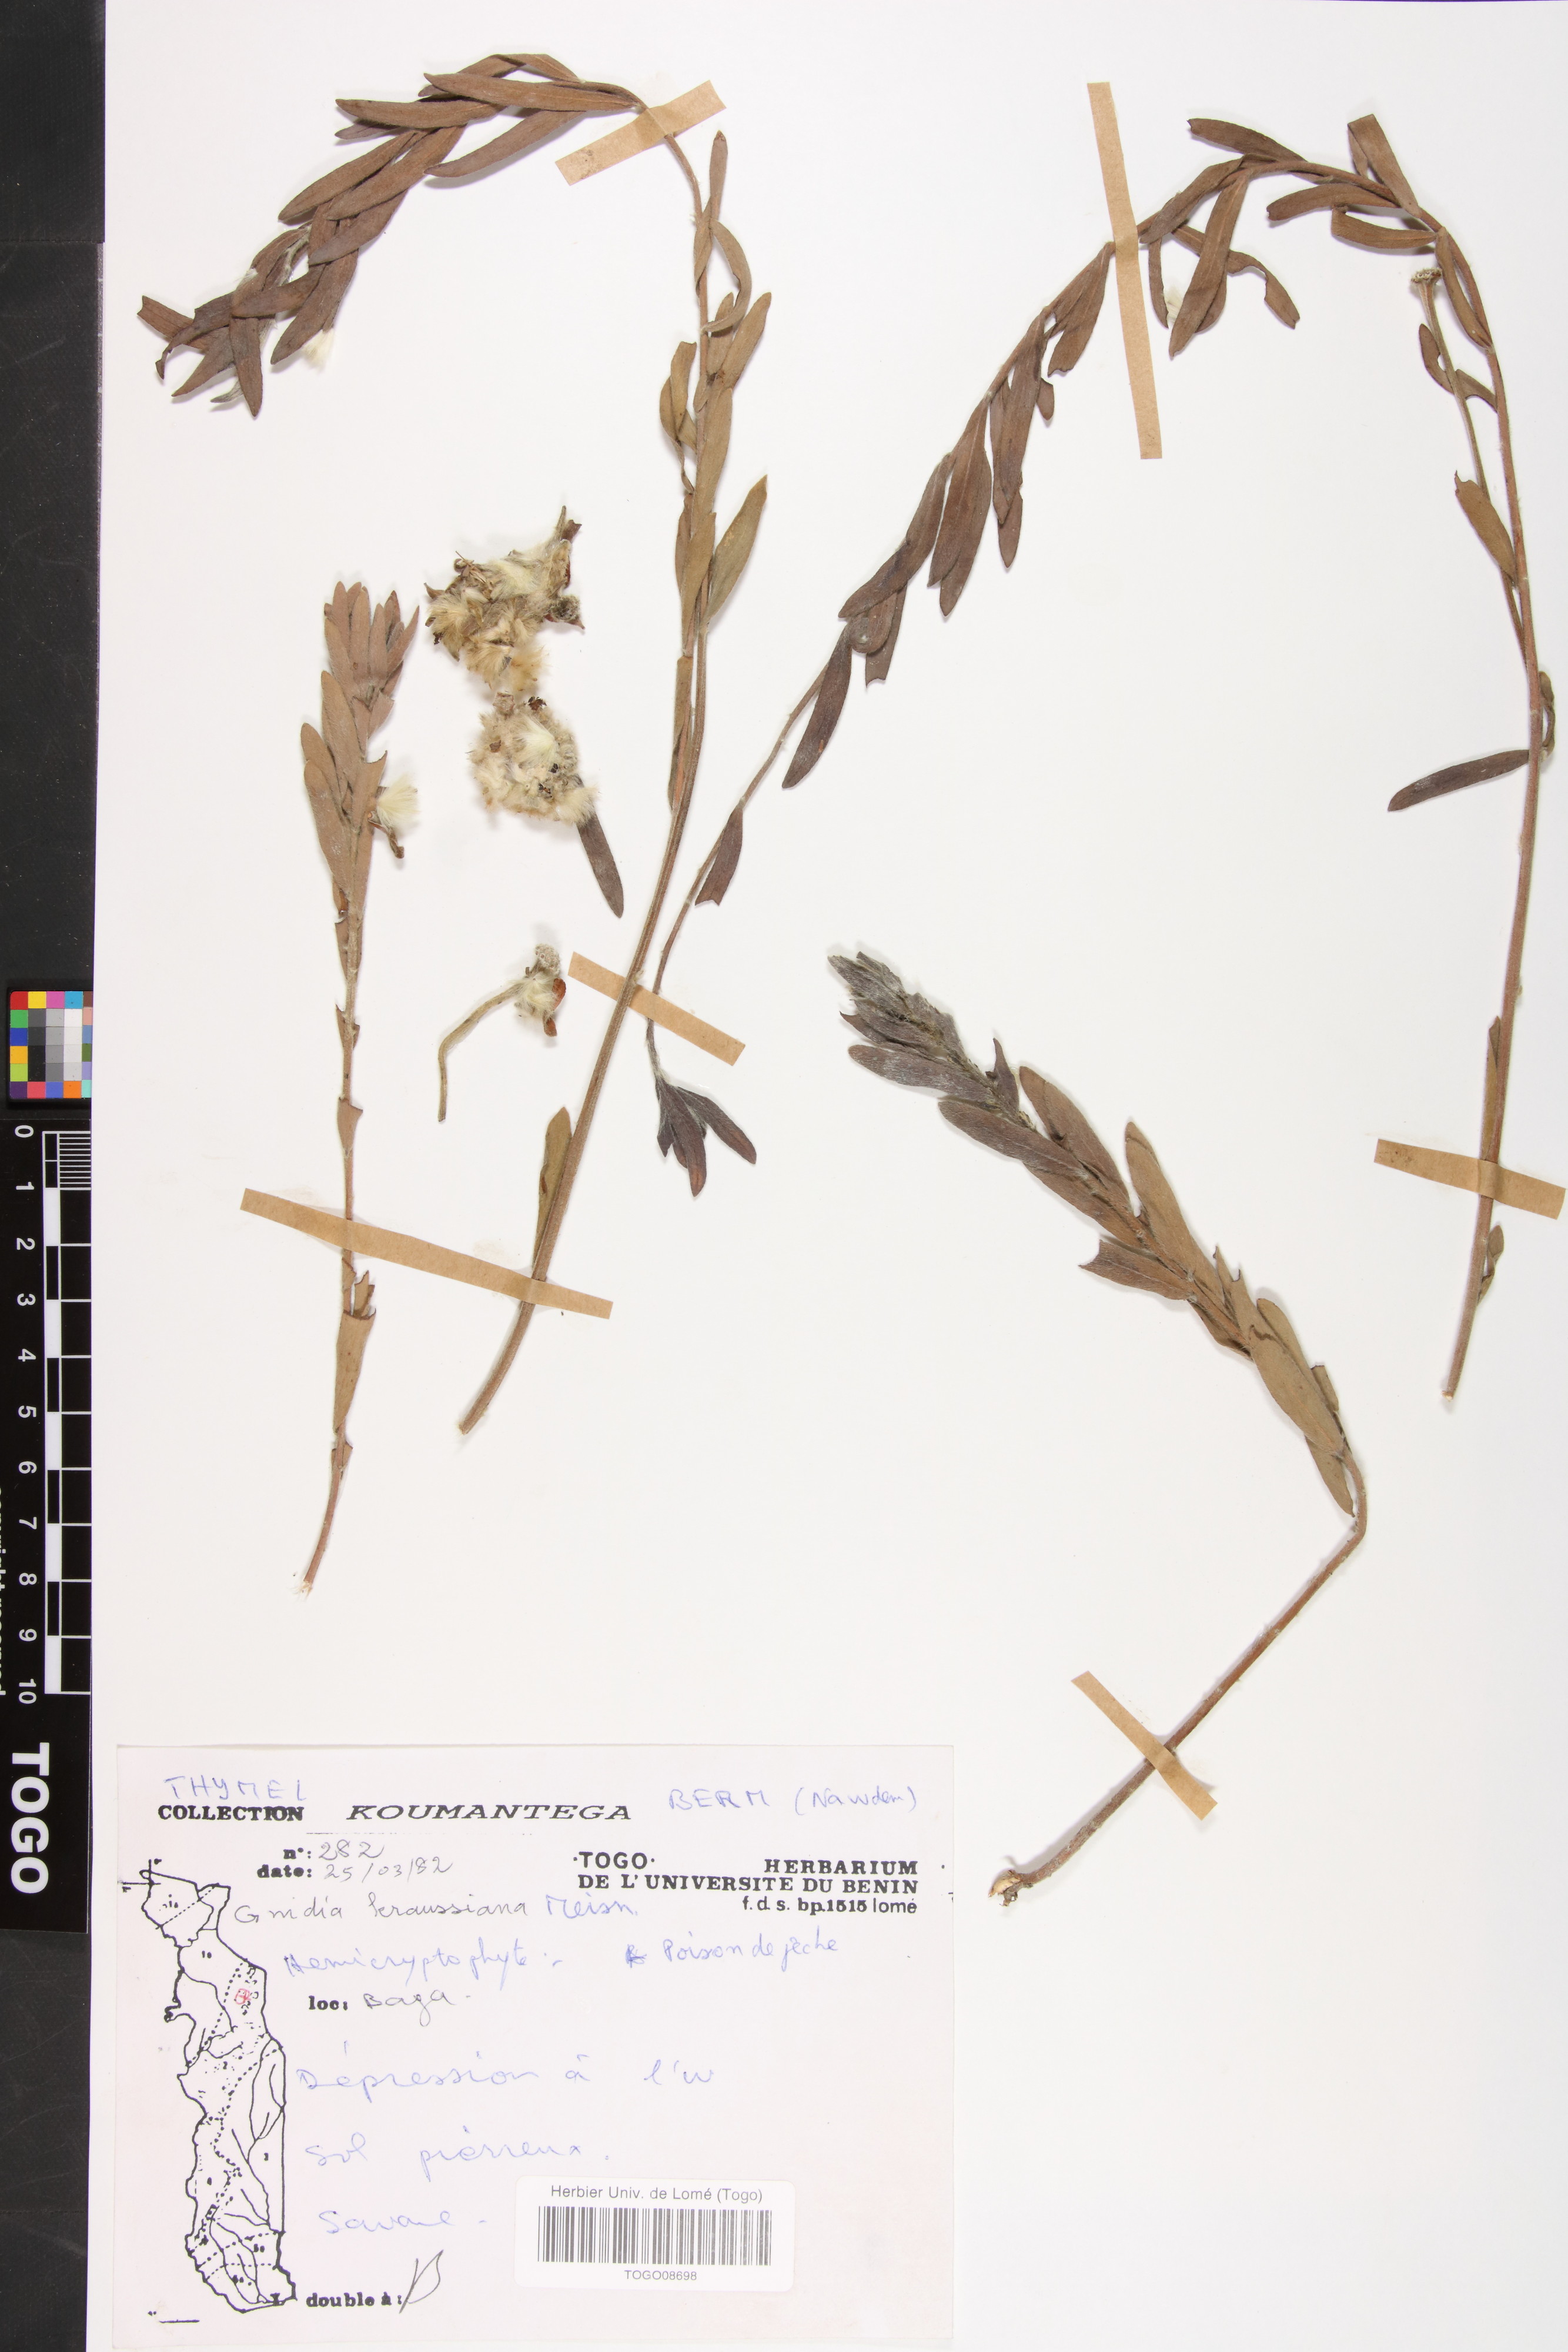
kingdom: Plantae
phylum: Tracheophyta
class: Magnoliopsida
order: Malvales
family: Thymelaeaceae
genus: Gnidia
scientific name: Gnidia kraussiana
